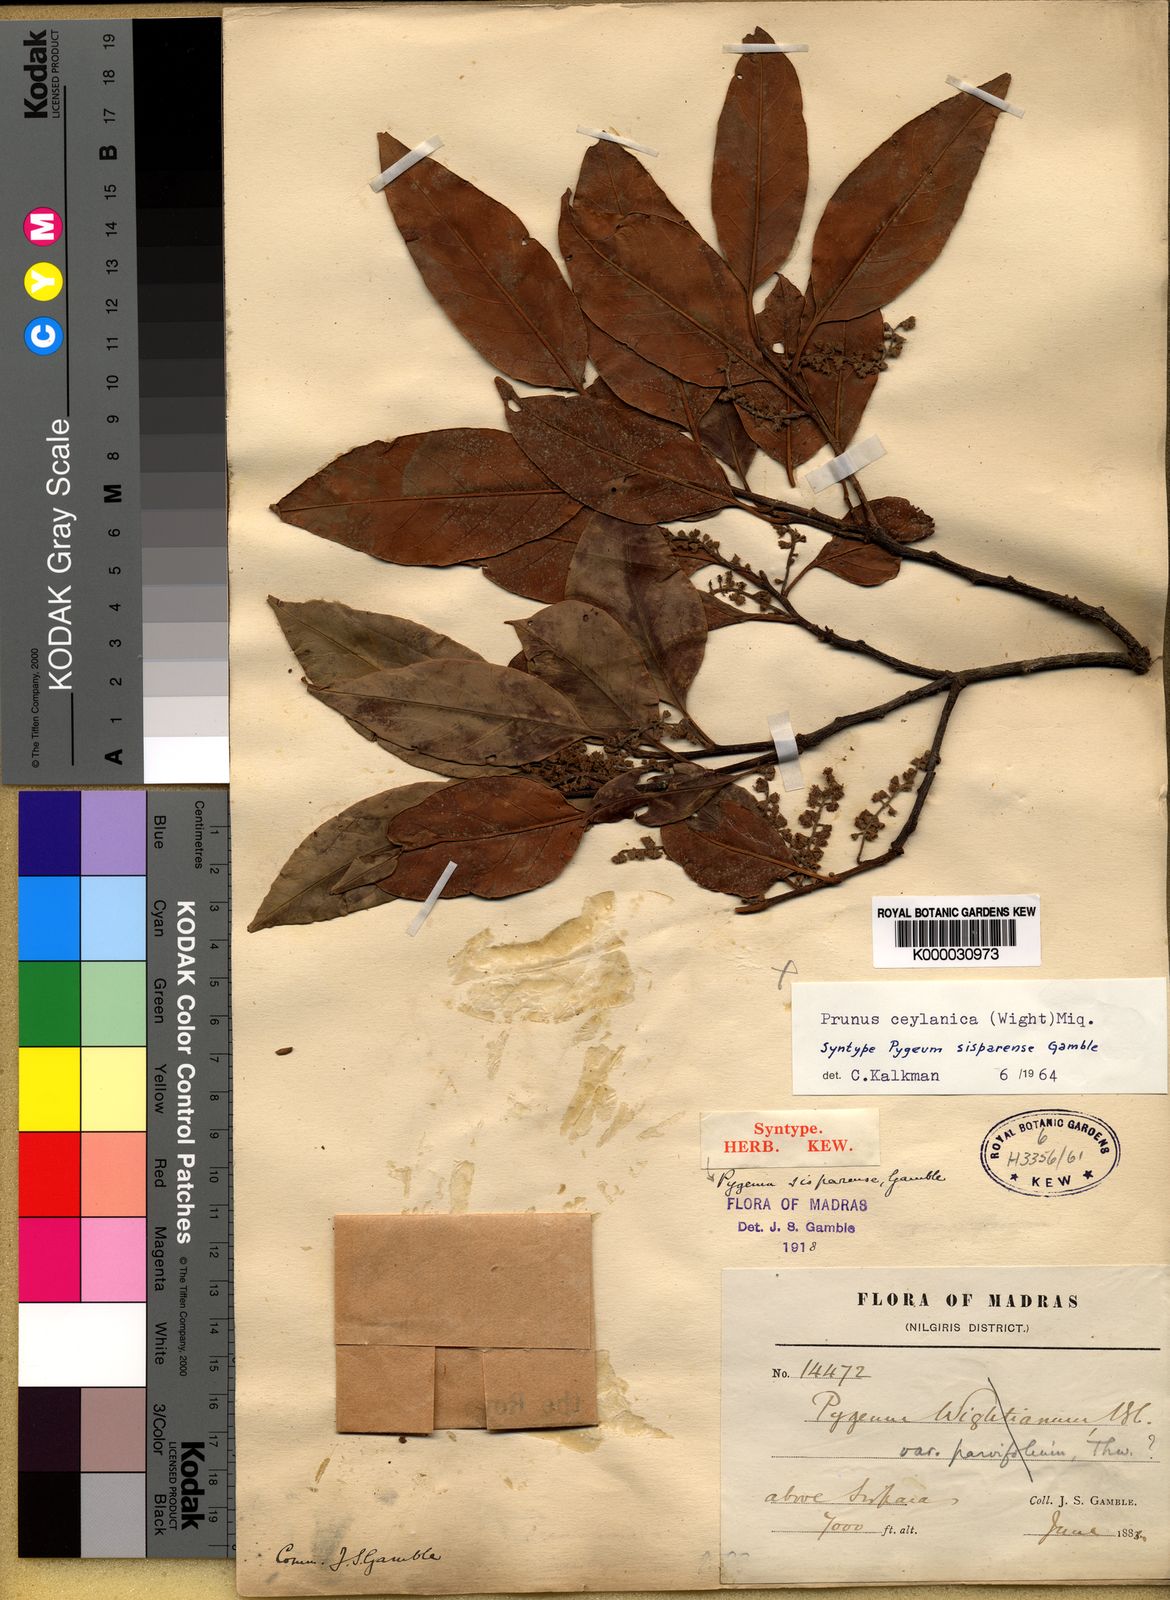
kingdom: Plantae
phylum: Tracheophyta
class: Magnoliopsida
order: Rosales
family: Rosaceae
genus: Prunus
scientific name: Prunus ceylanica
